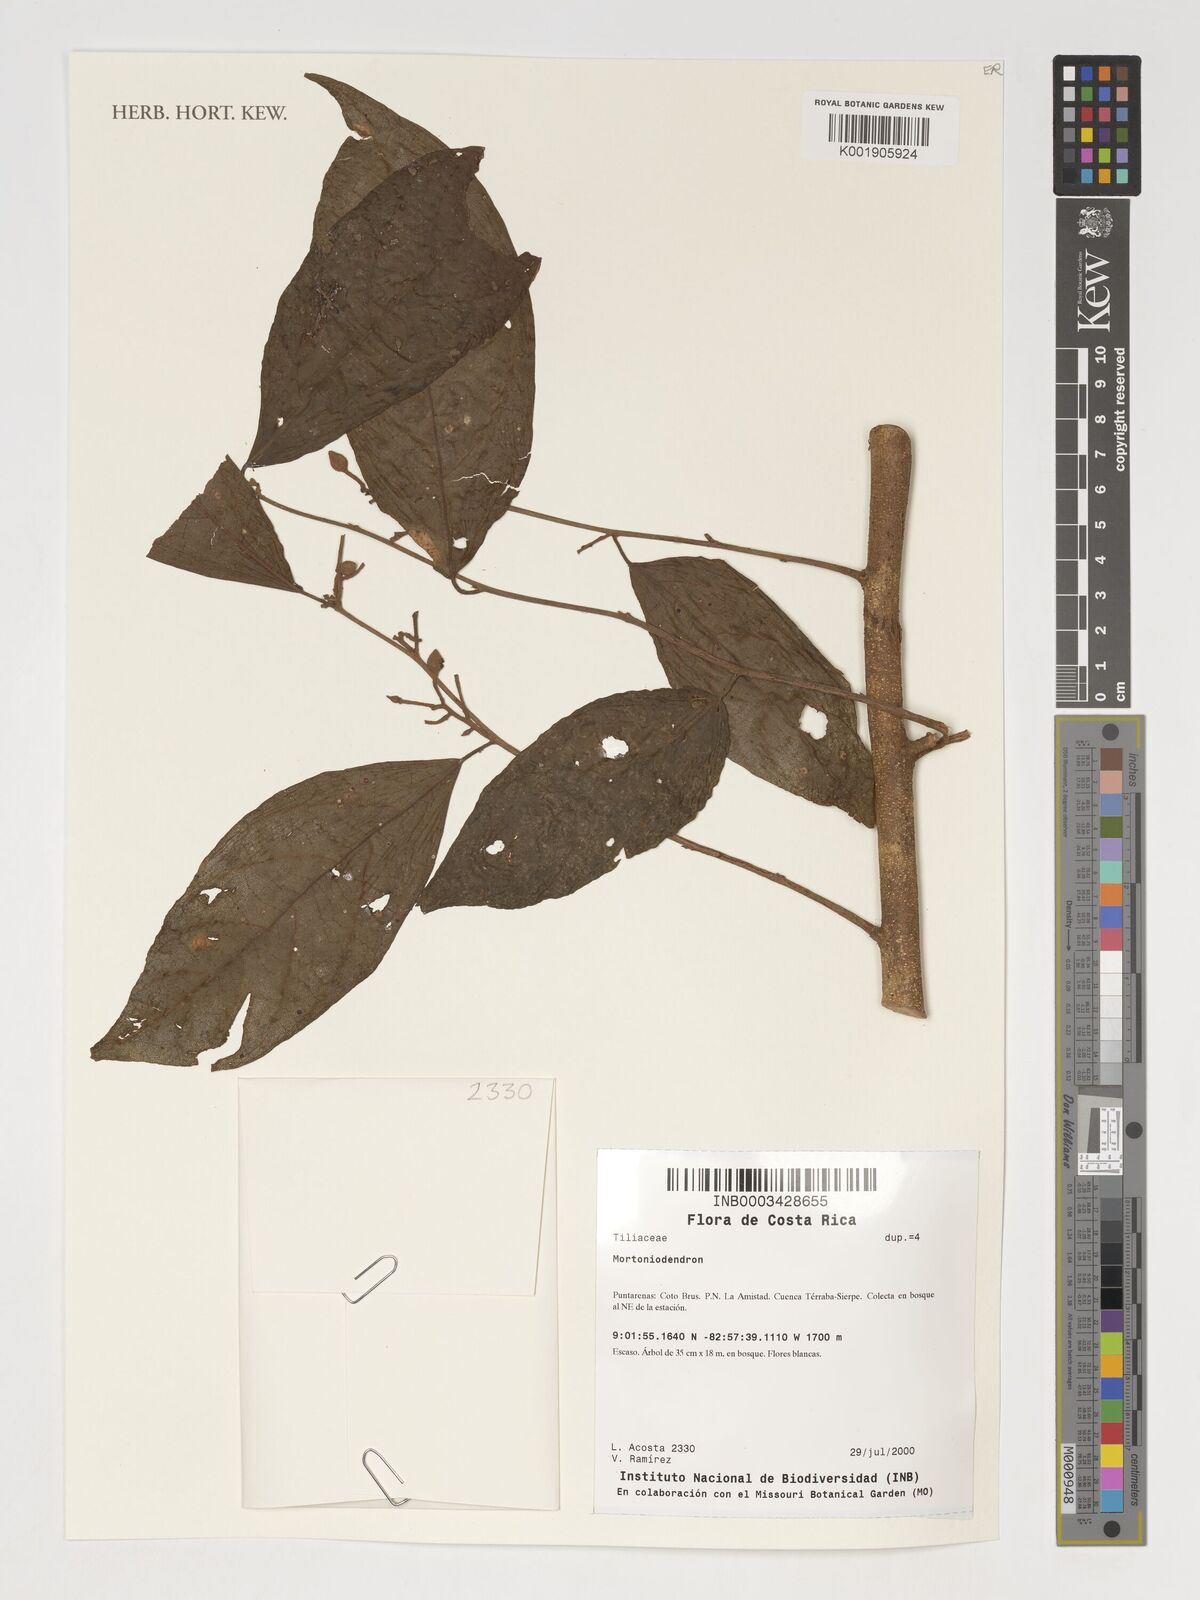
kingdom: Plantae
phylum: Tracheophyta
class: Magnoliopsida
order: Malvales
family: Malvaceae
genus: Mortoniodendron
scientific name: Mortoniodendron
